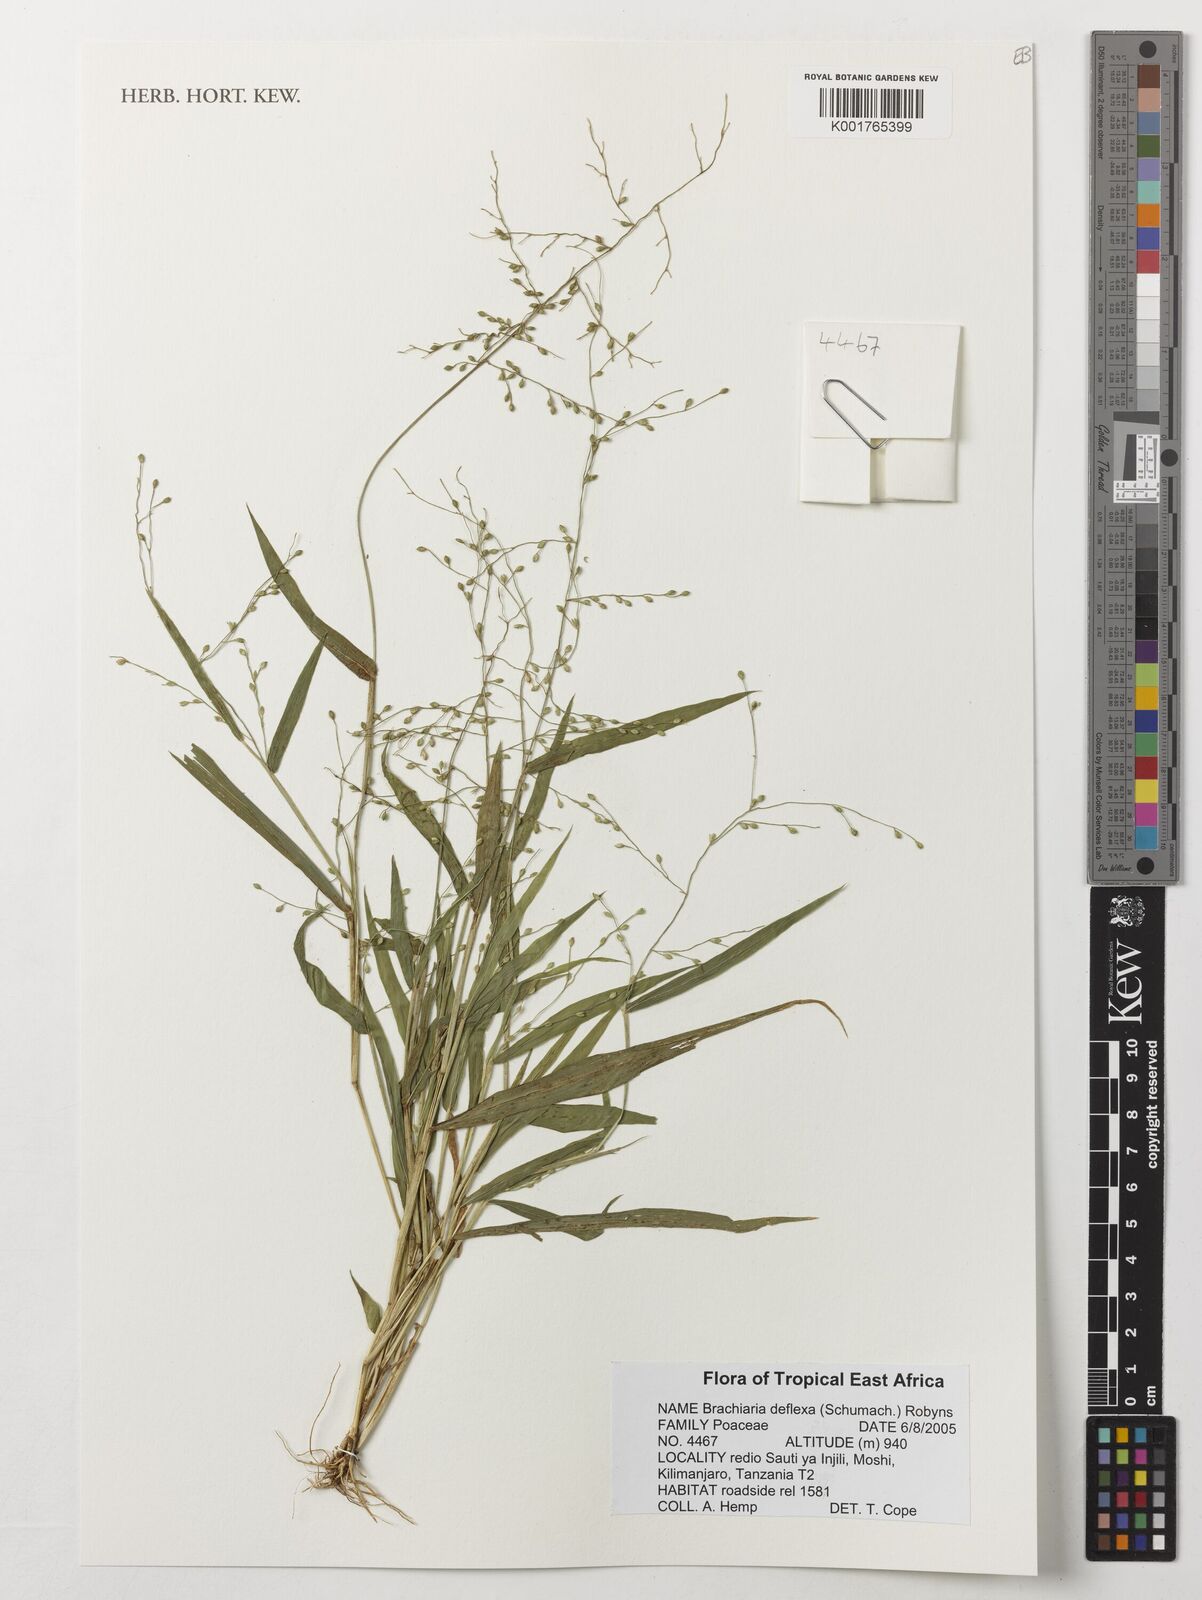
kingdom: Plantae
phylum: Tracheophyta
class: Liliopsida
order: Poales
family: Poaceae
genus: Urochloa
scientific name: Urochloa deflexa
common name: Guinea millet
